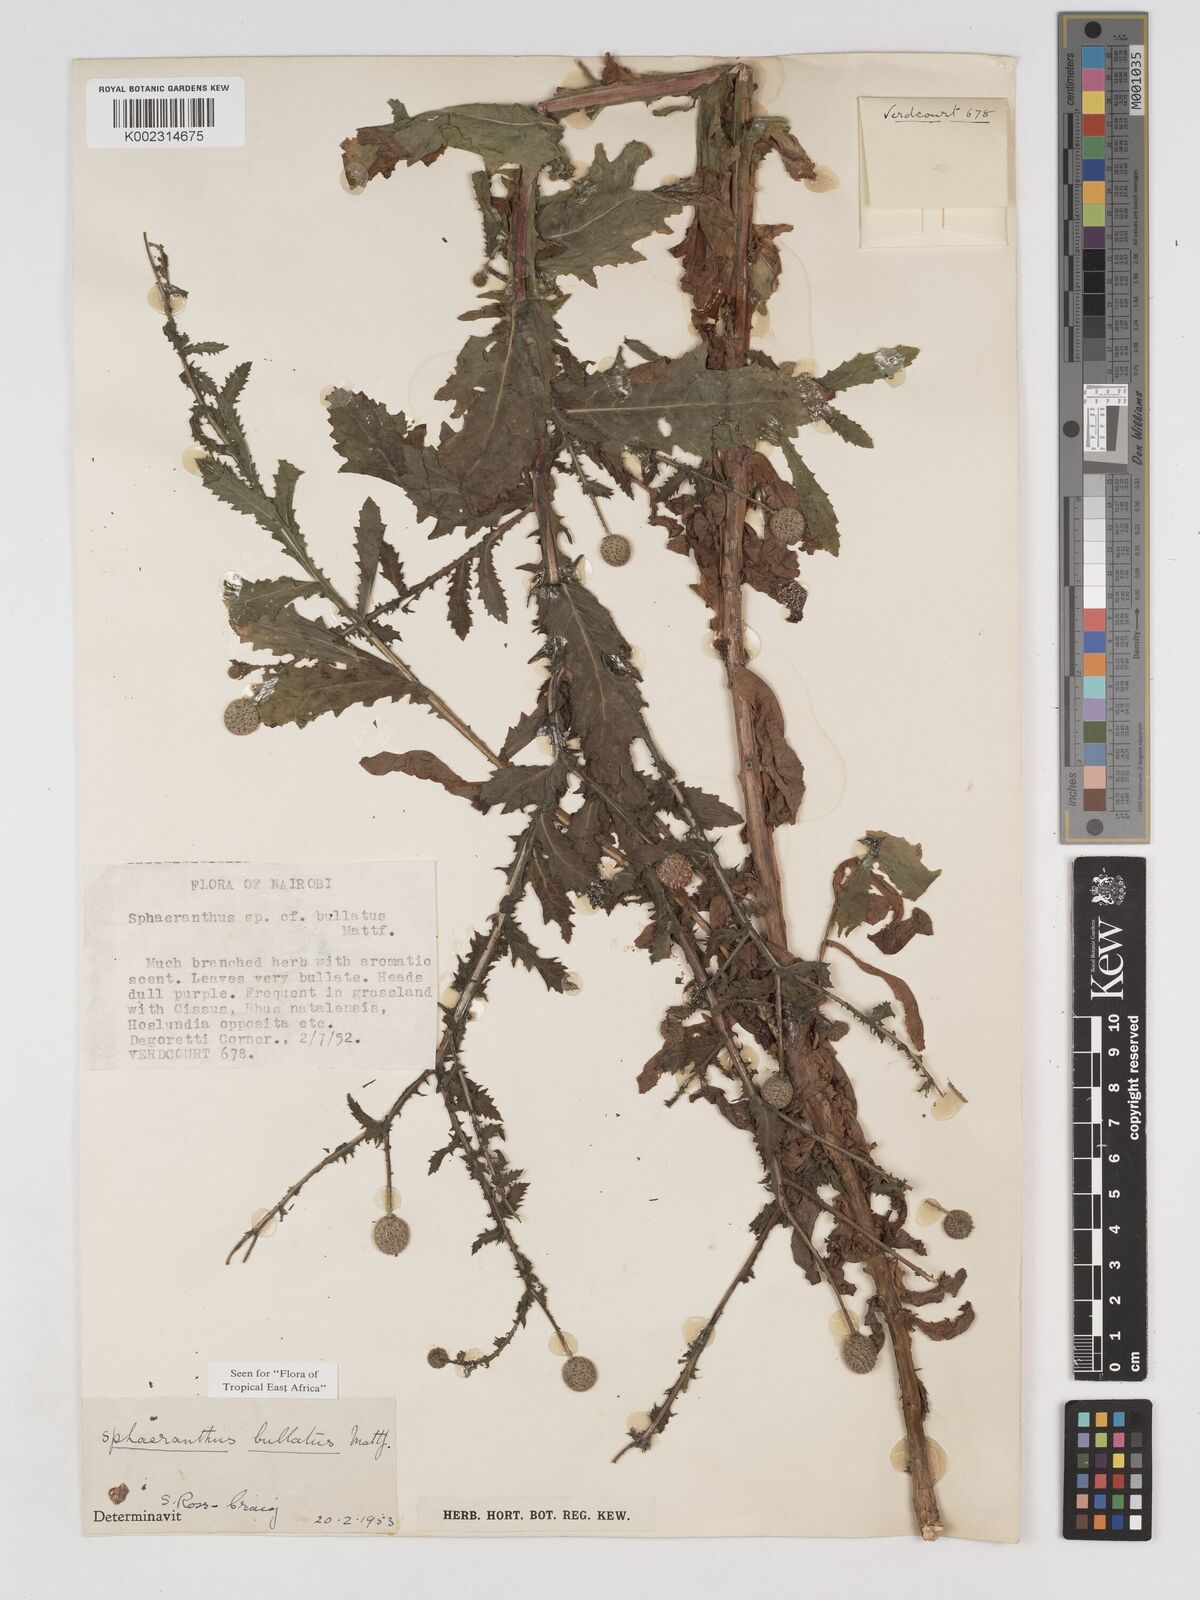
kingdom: Plantae
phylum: Tracheophyta
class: Magnoliopsida
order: Asterales
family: Asteraceae
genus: Sphaeranthus
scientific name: Sphaeranthus bullatus
